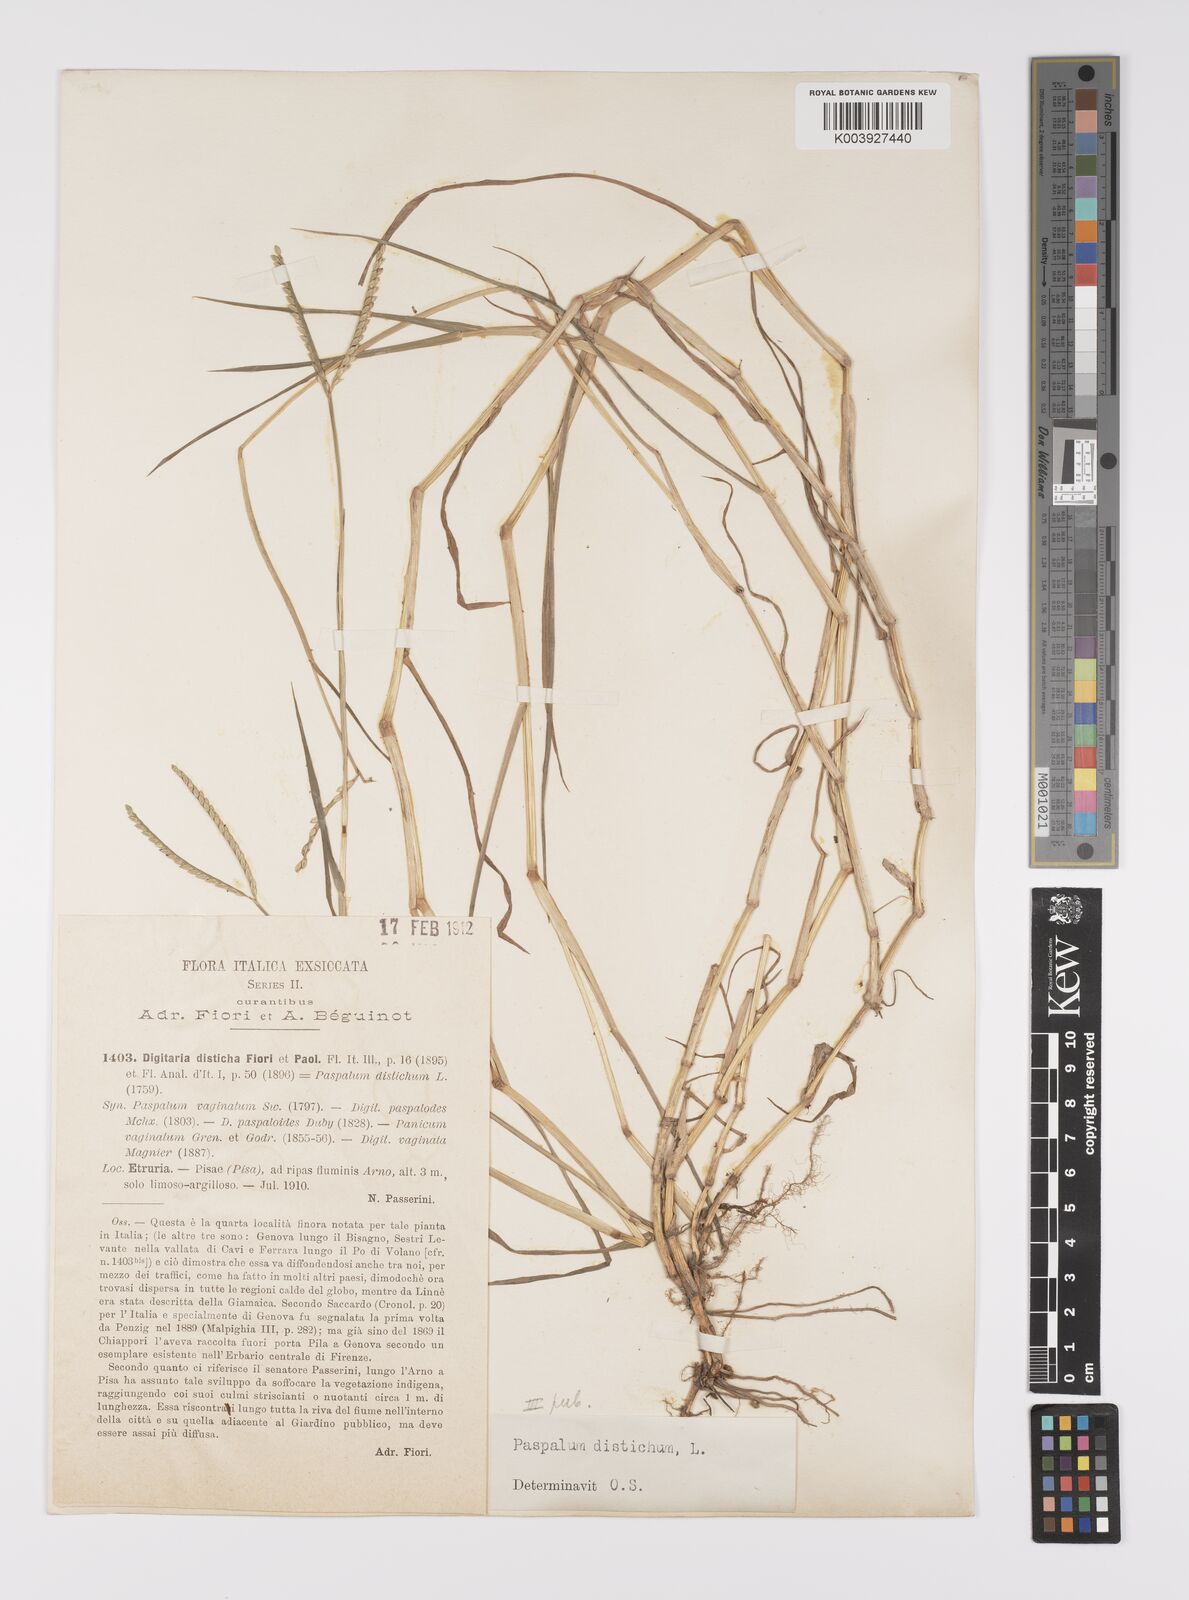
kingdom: Plantae
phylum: Tracheophyta
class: Liliopsida
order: Poales
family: Poaceae
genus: Paspalum
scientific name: Paspalum distichum
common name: Knotgrass
